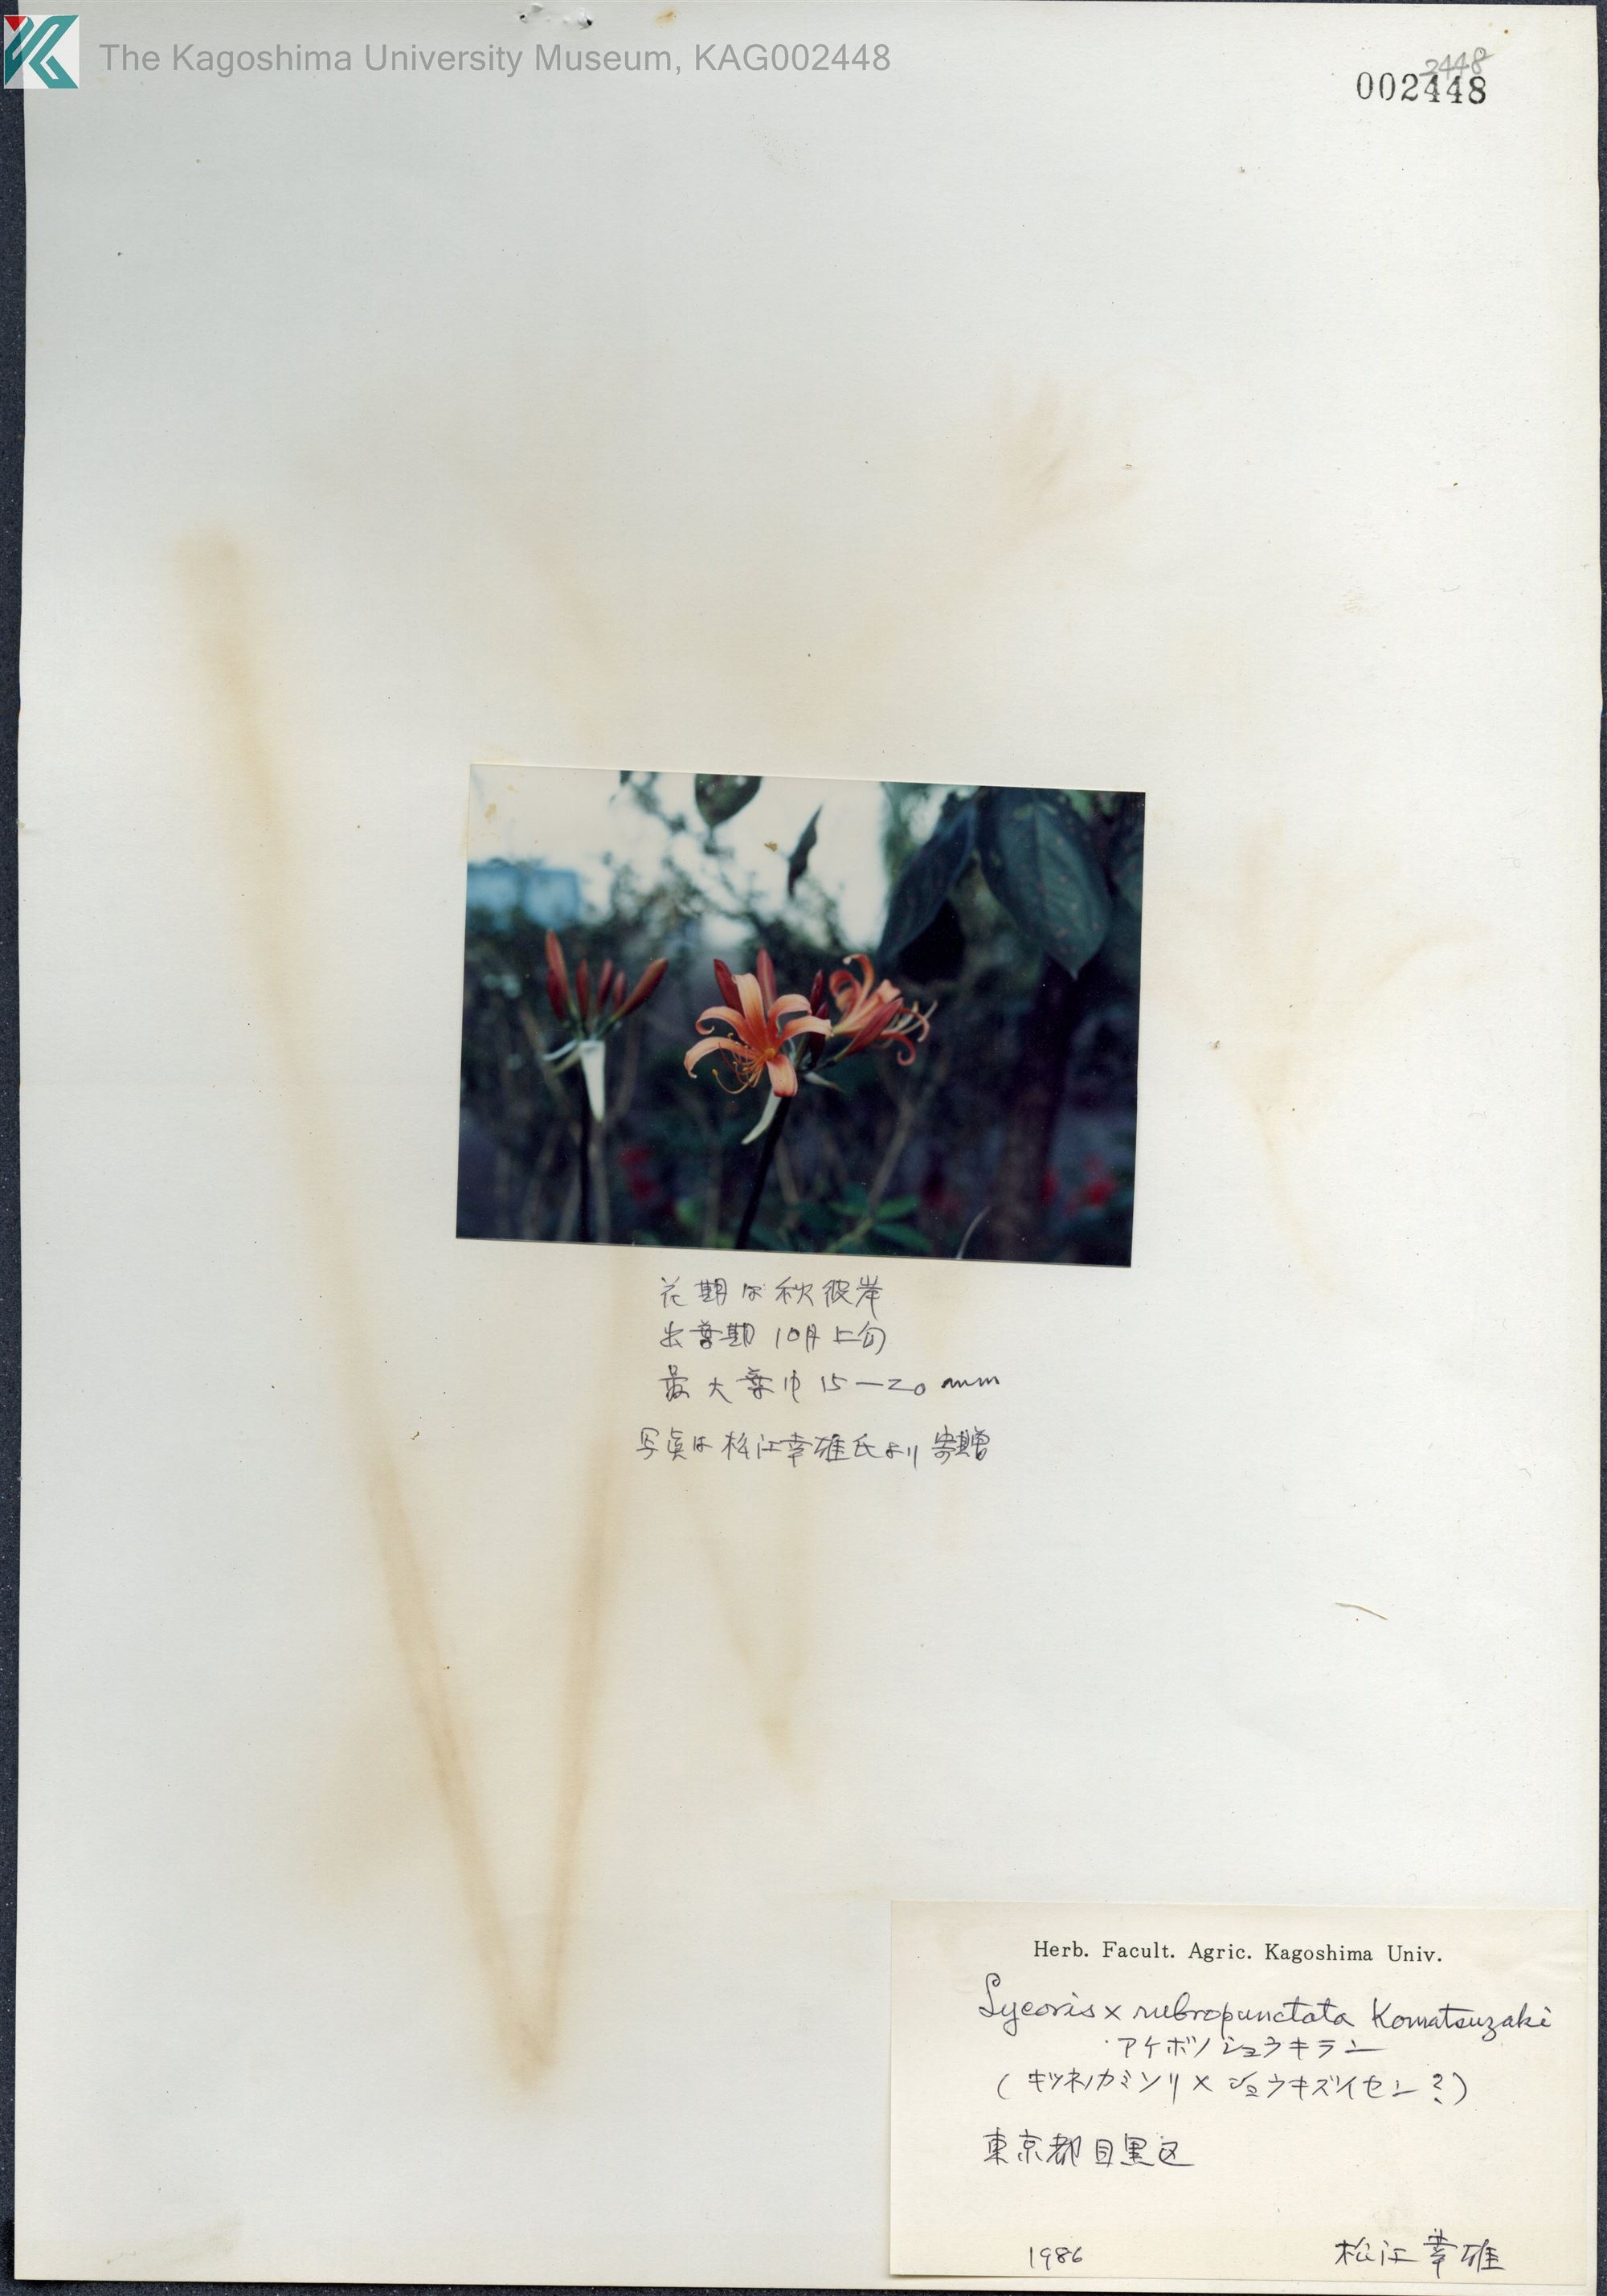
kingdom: Plantae
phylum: Tracheophyta
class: Liliopsida
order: Asparagales
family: Amaryllidaceae
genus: Lycoris
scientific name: Lycoris albiflora
